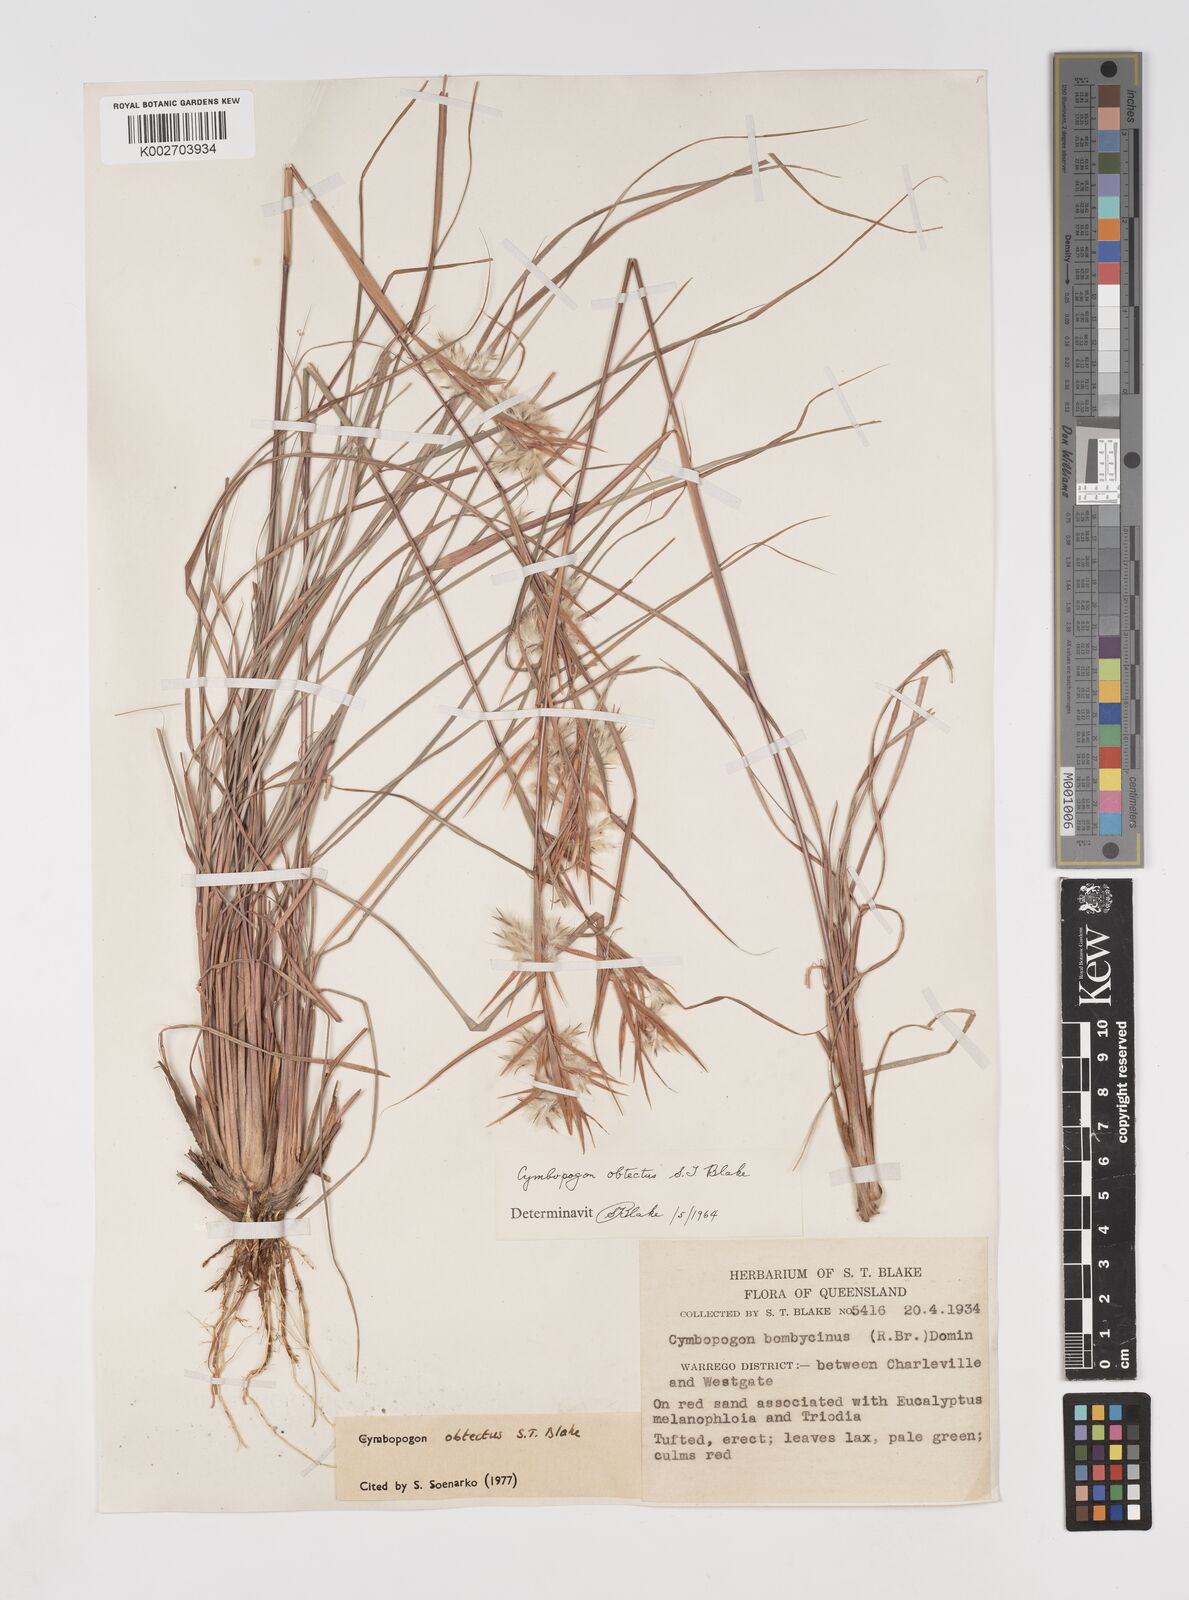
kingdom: Plantae
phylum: Tracheophyta
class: Liliopsida
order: Poales
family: Poaceae
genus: Cymbopogon
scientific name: Cymbopogon obtectus
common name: Silky heads
